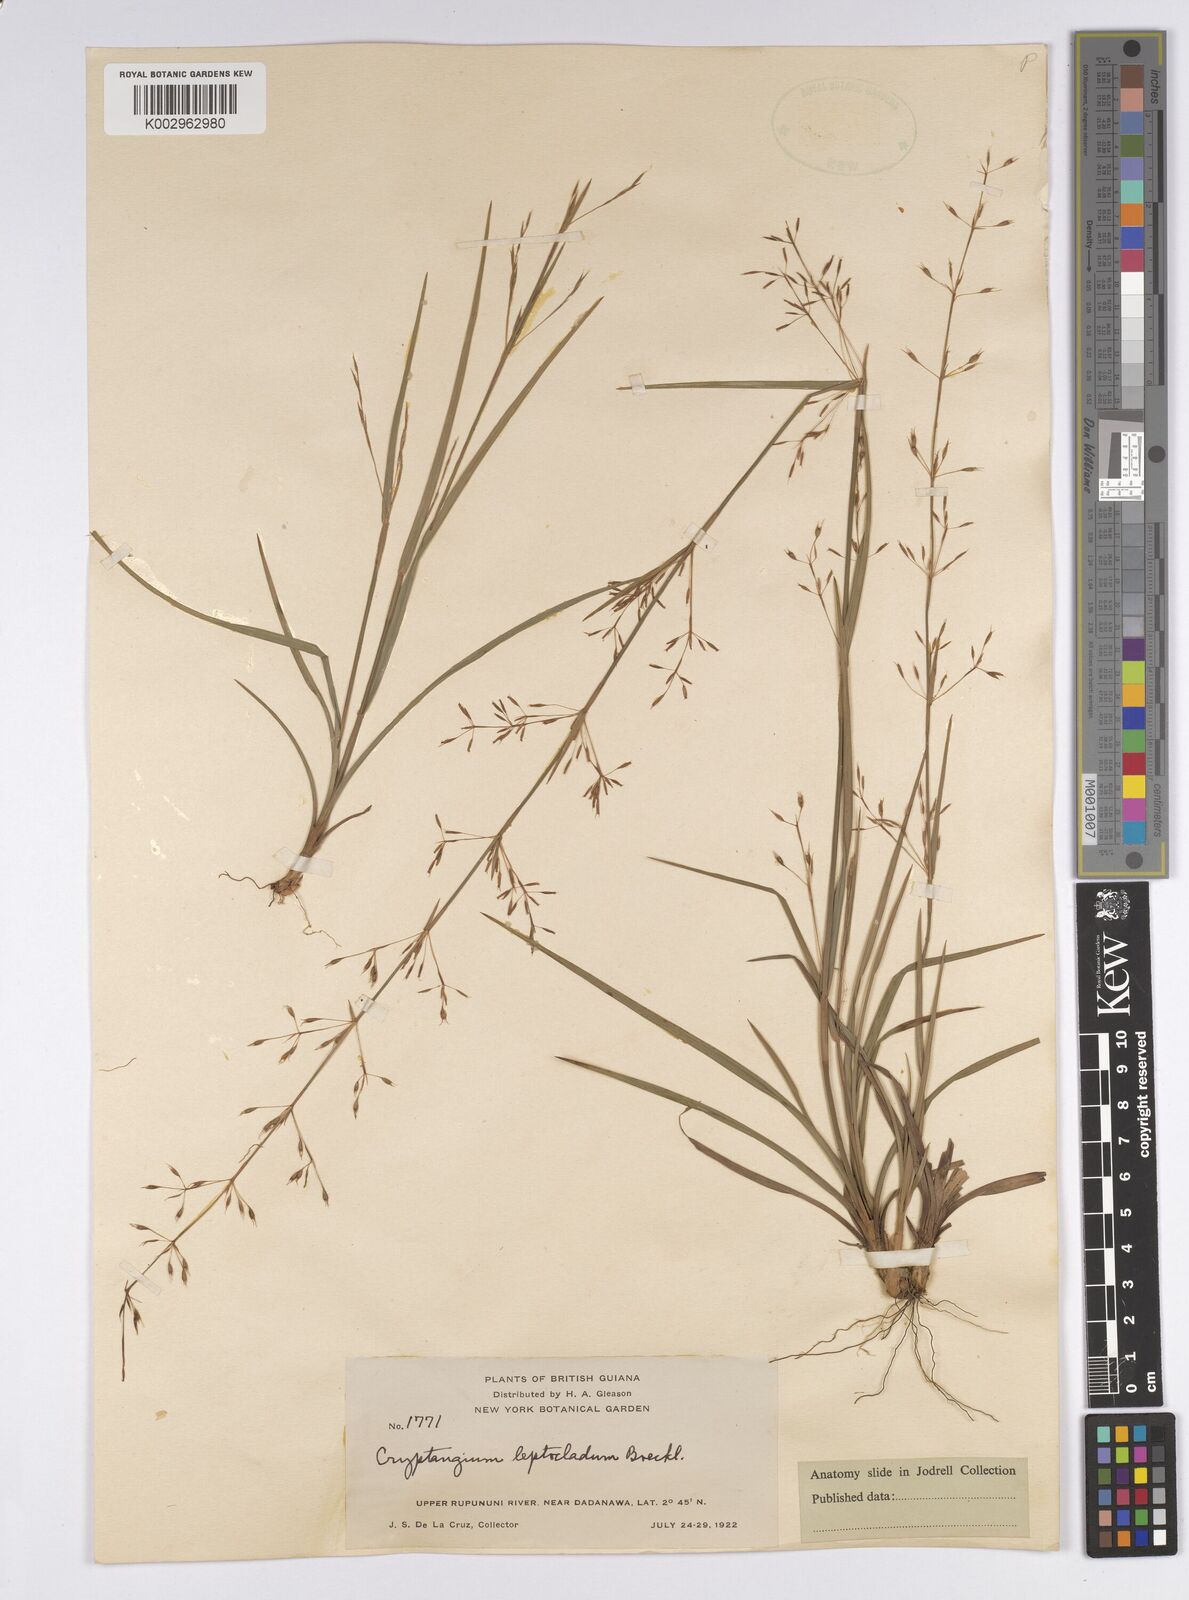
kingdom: Plantae
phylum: Tracheophyta
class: Liliopsida
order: Poales
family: Cyperaceae
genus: Cryptangium
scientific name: Cryptangium verticillatum
